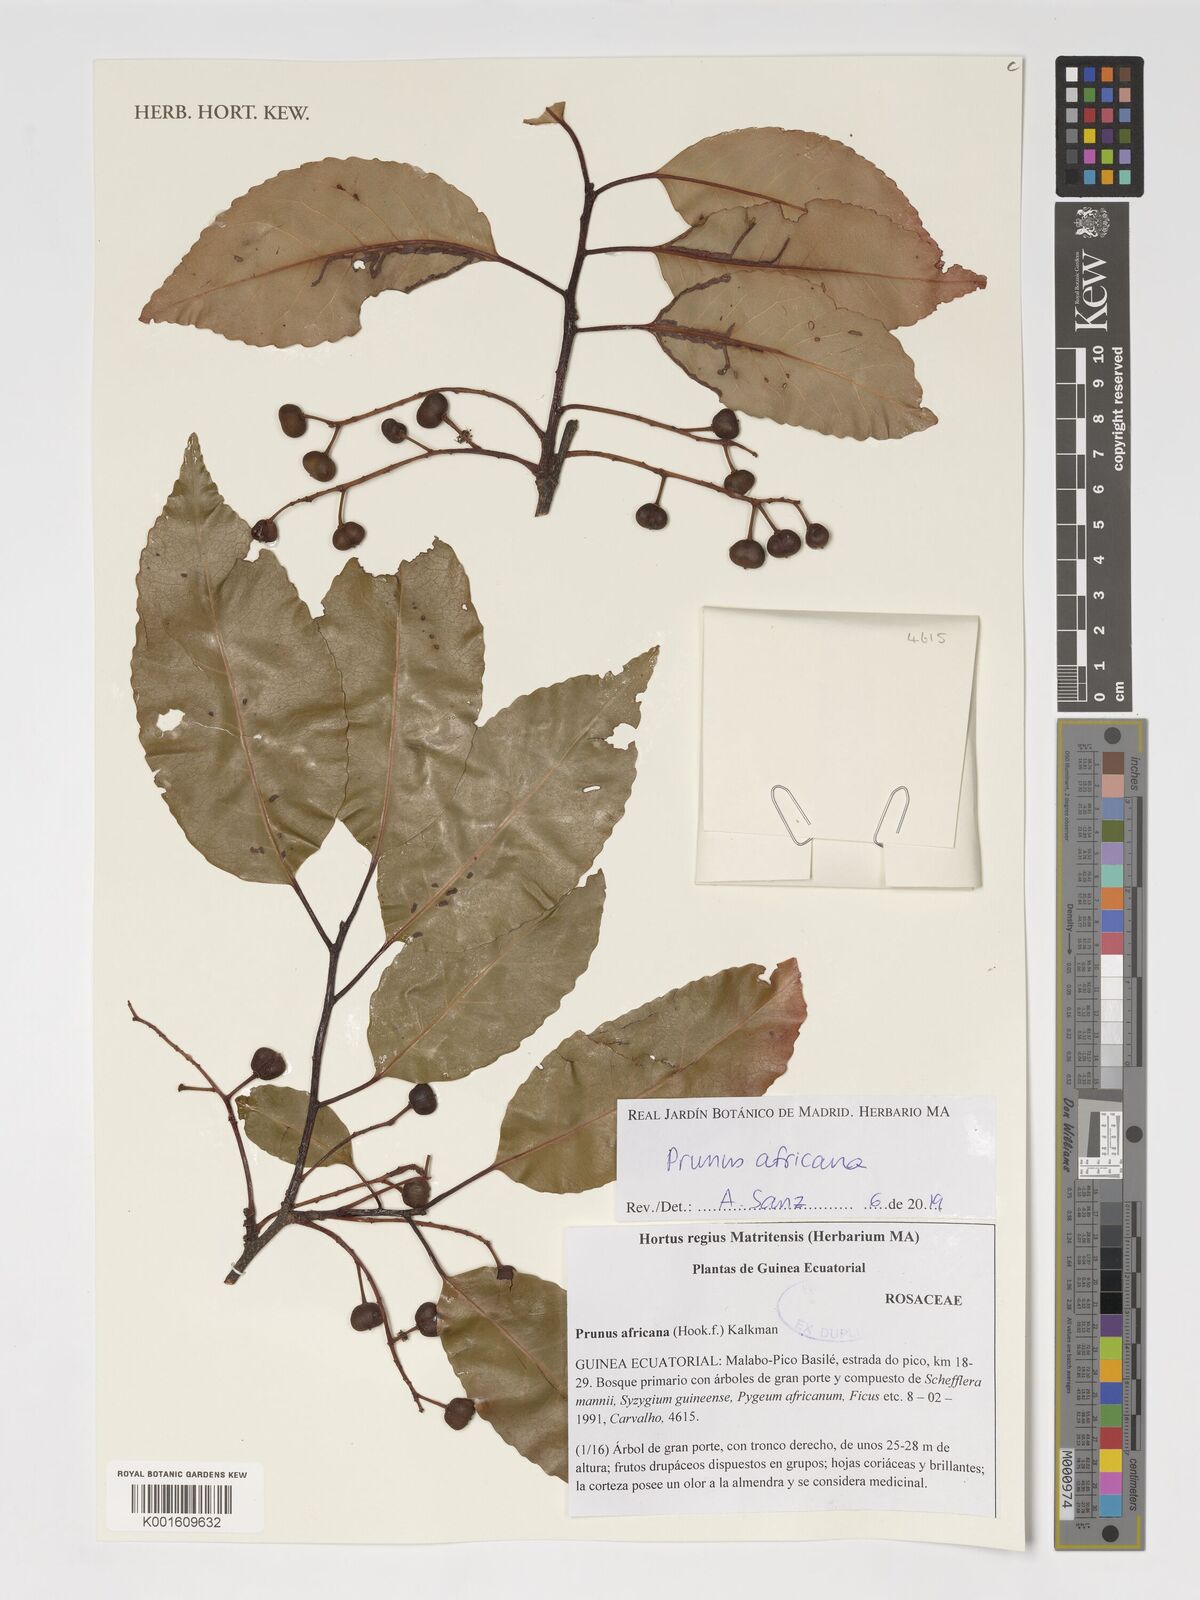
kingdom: Plantae
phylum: Tracheophyta
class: Magnoliopsida
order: Rosales
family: Rosaceae
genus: Prunus
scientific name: Prunus africana
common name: African cherry
